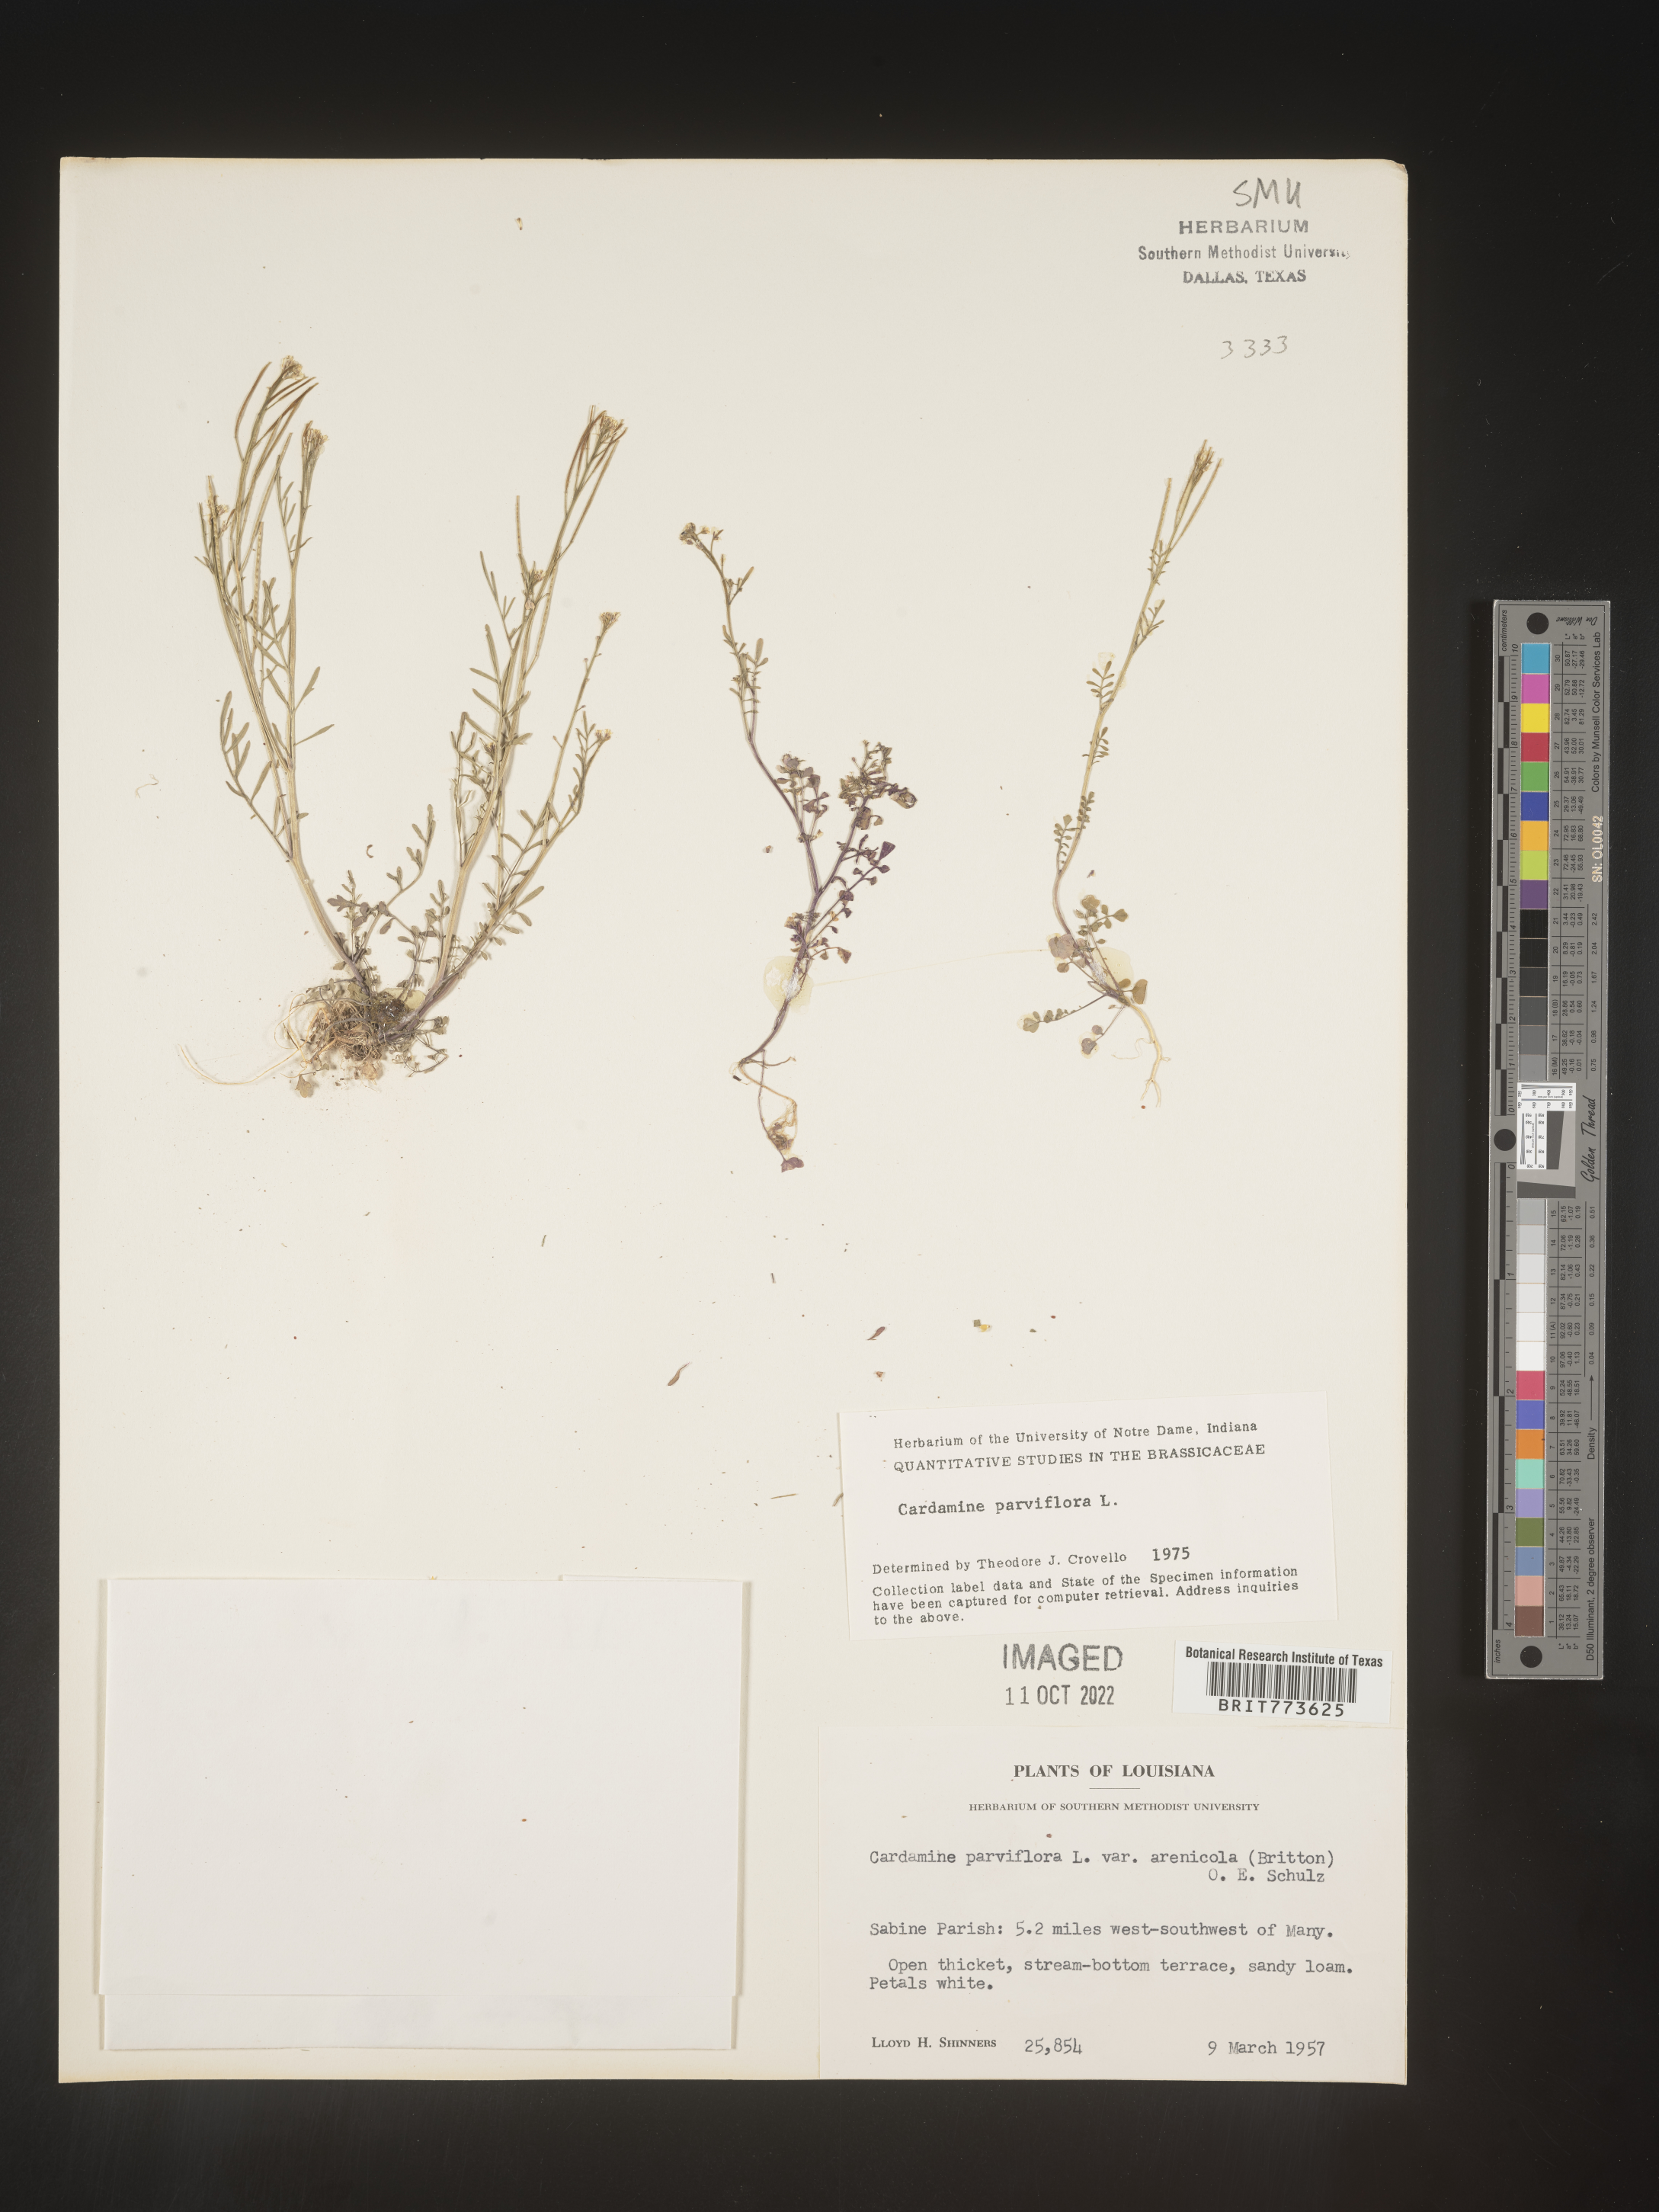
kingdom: Plantae
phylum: Tracheophyta
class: Magnoliopsida
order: Brassicales
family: Brassicaceae
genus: Cardamine
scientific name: Cardamine parviflora
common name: Sand bittercress
